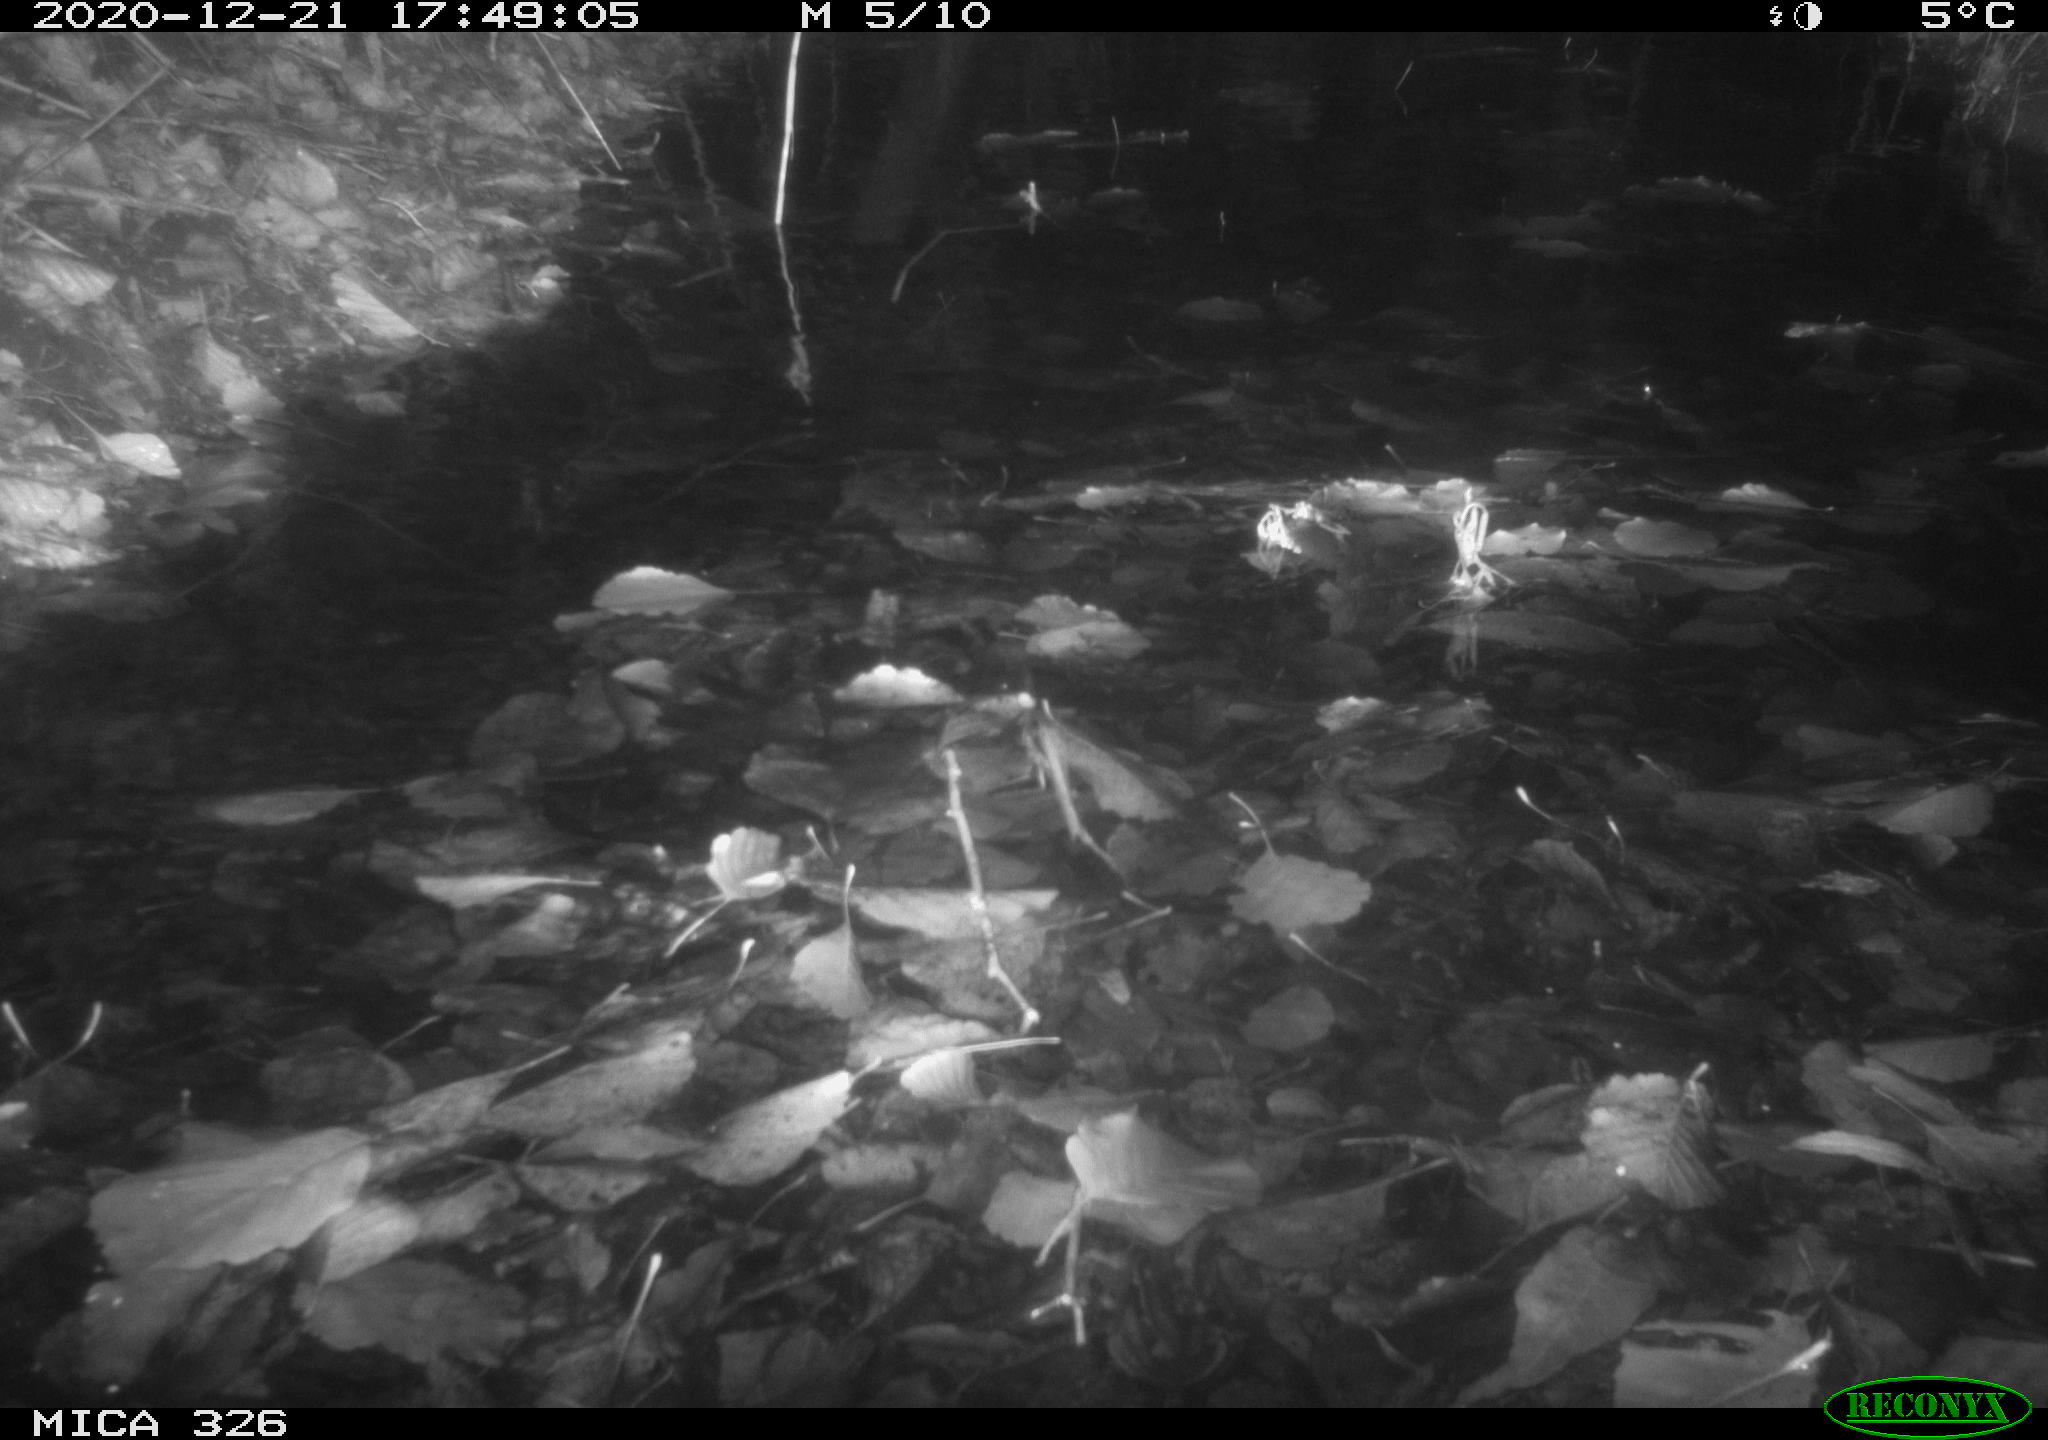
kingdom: Animalia
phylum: Chordata
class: Mammalia
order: Rodentia
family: Cricetidae
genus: Ondatra
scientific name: Ondatra zibethicus
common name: Muskrat
